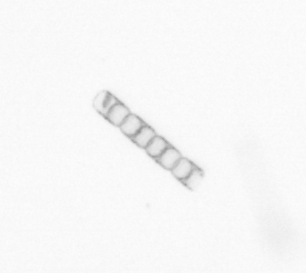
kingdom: Chromista
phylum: Ochrophyta
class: Bacillariophyceae
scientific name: Bacillariophyceae
